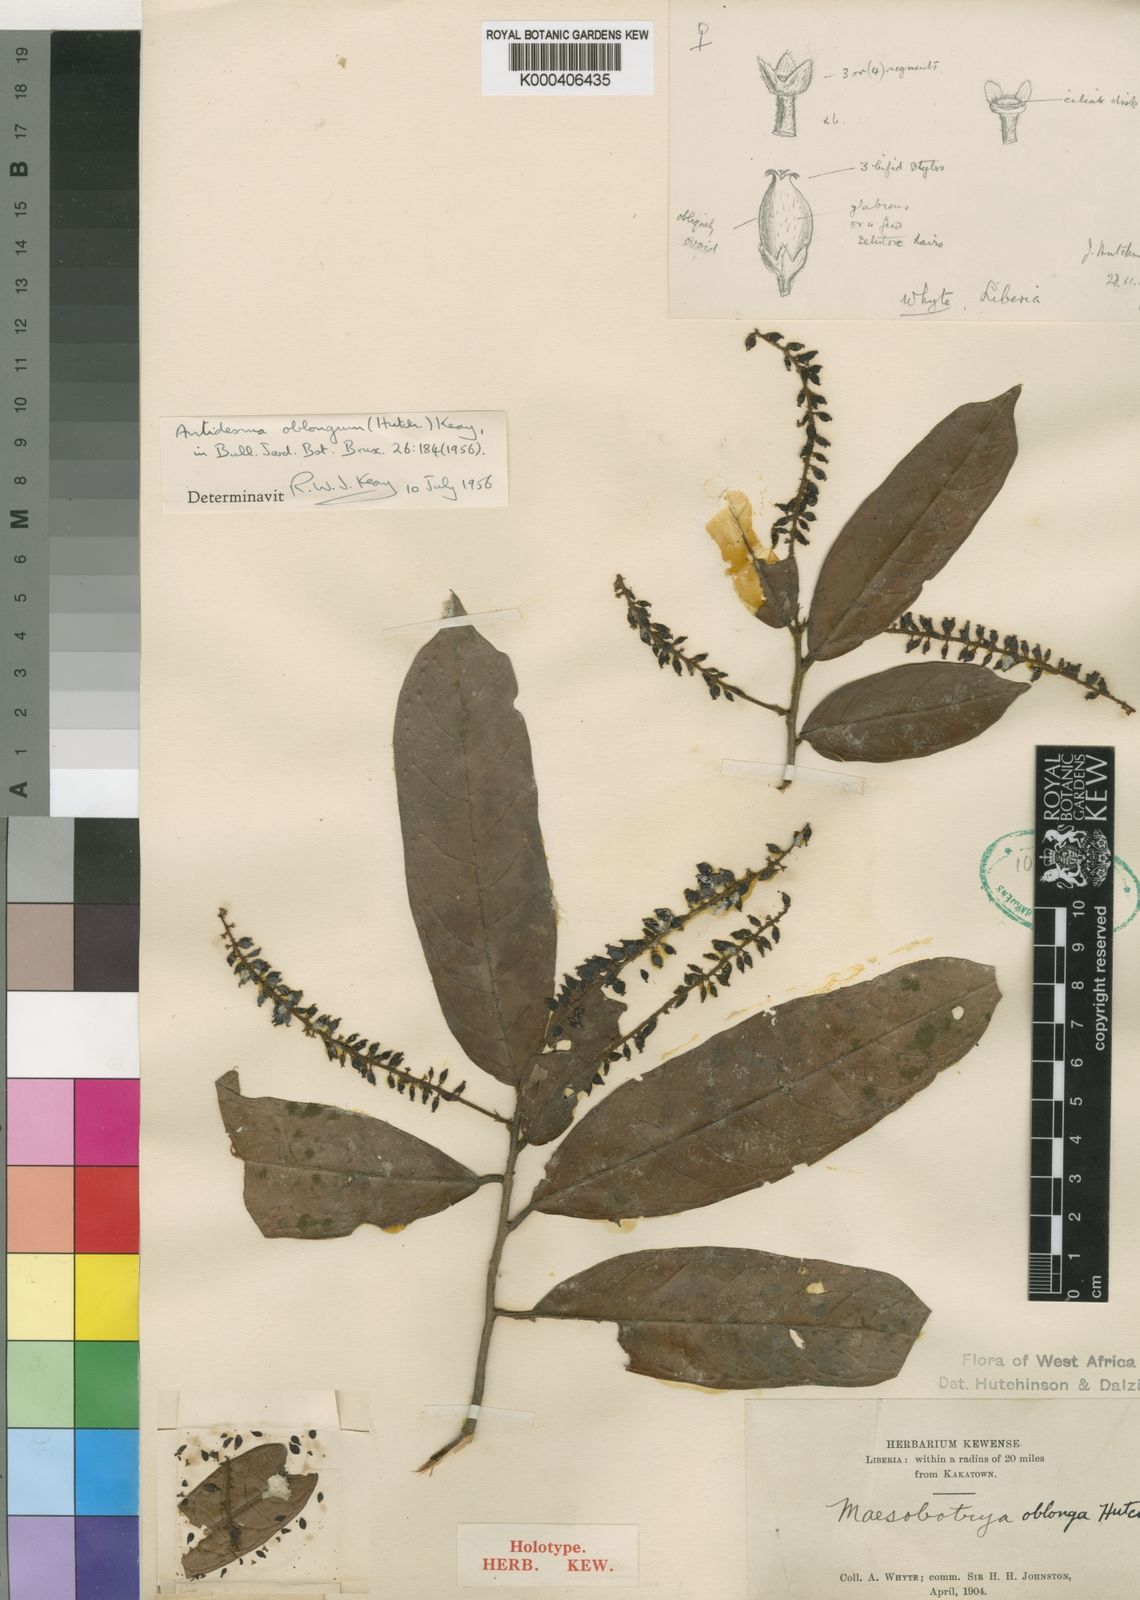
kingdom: Plantae
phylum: Tracheophyta
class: Magnoliopsida
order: Malpighiales
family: Phyllanthaceae
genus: Antidesma
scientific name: Antidesma oblongum
